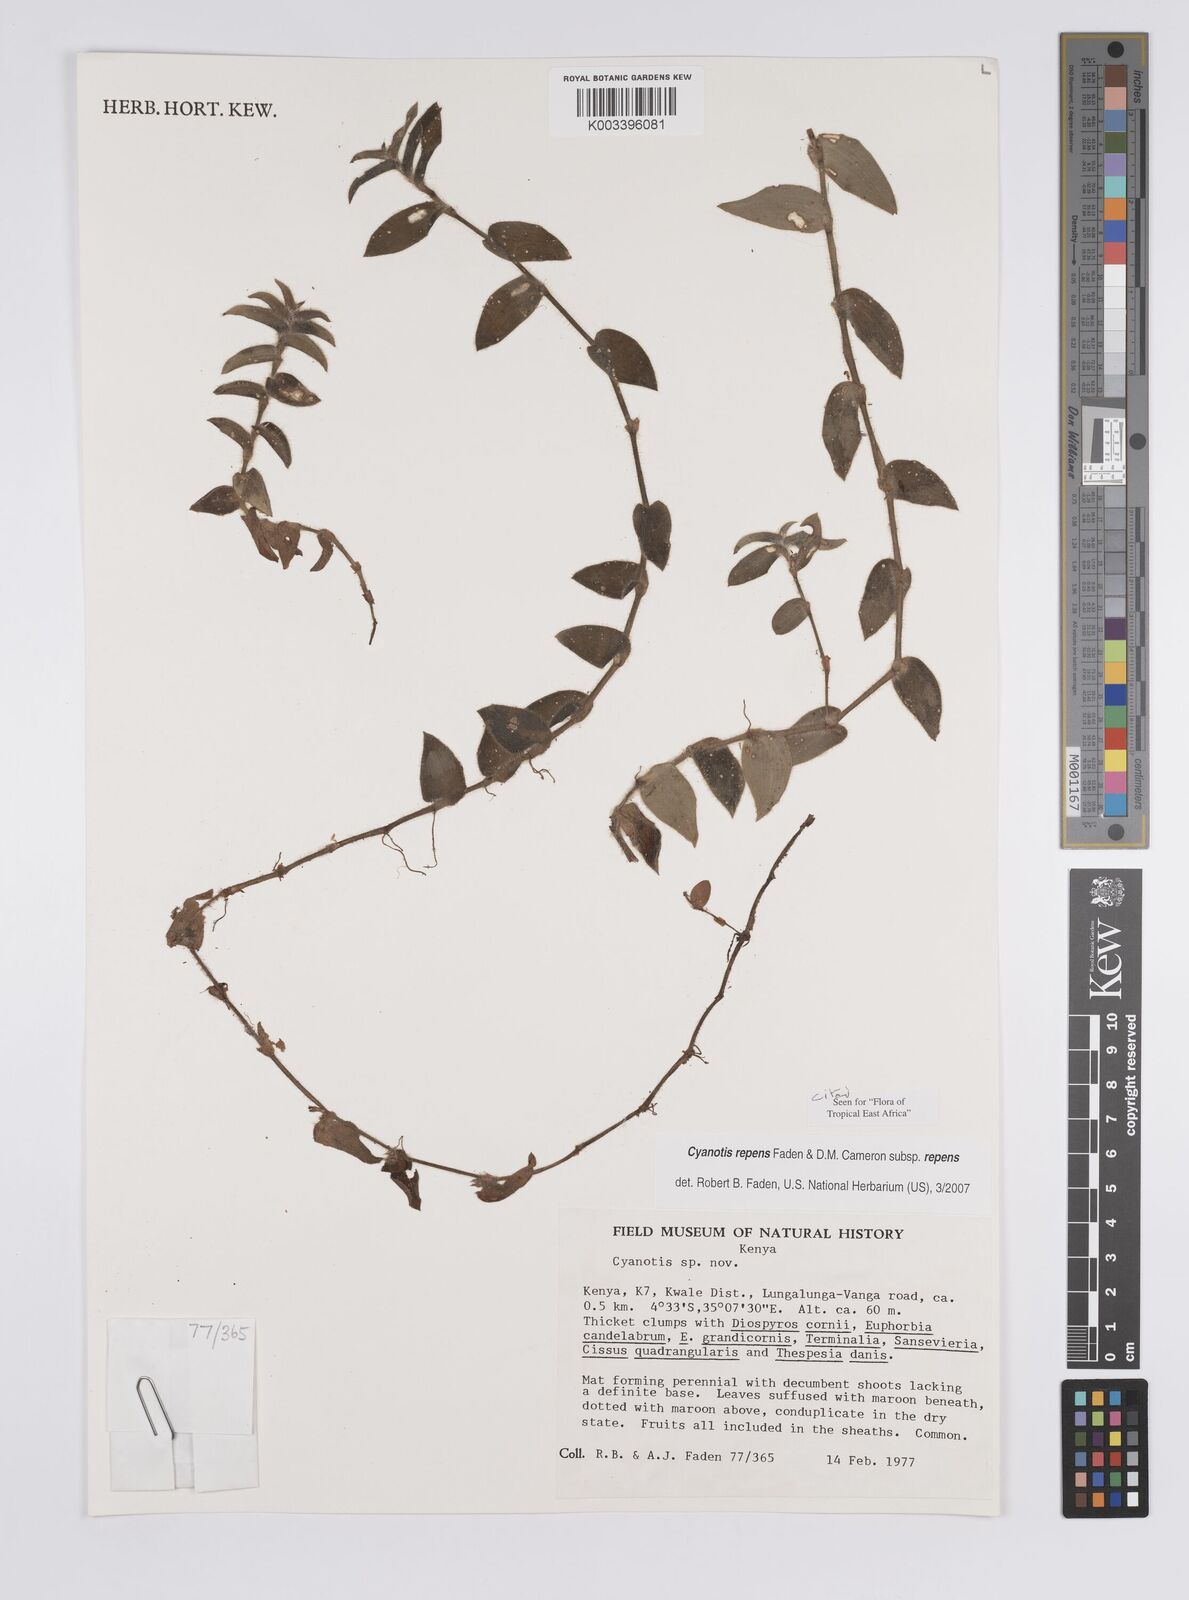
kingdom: Plantae
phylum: Tracheophyta
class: Liliopsida
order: Commelinales
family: Commelinaceae
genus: Cyanotis
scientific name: Cyanotis repens
